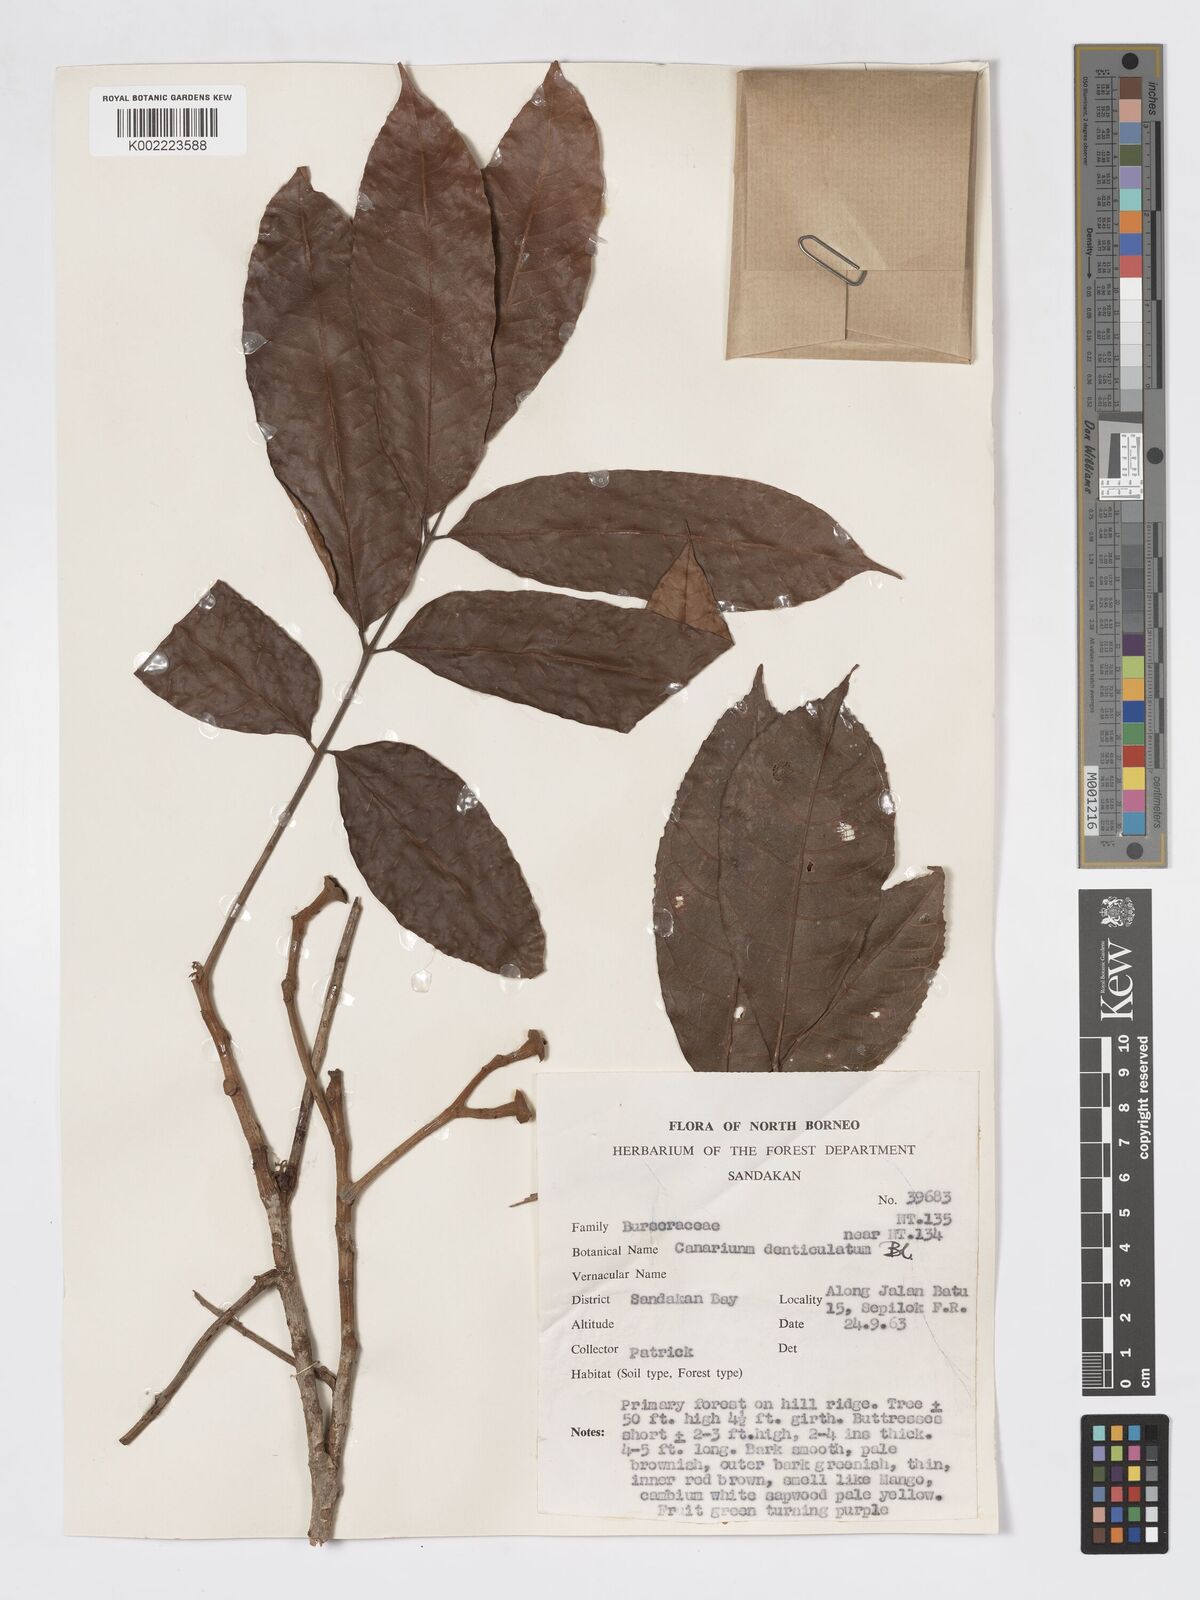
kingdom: Plantae
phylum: Tracheophyta
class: Magnoliopsida
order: Sapindales
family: Burseraceae
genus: Canarium
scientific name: Canarium denticulatum
